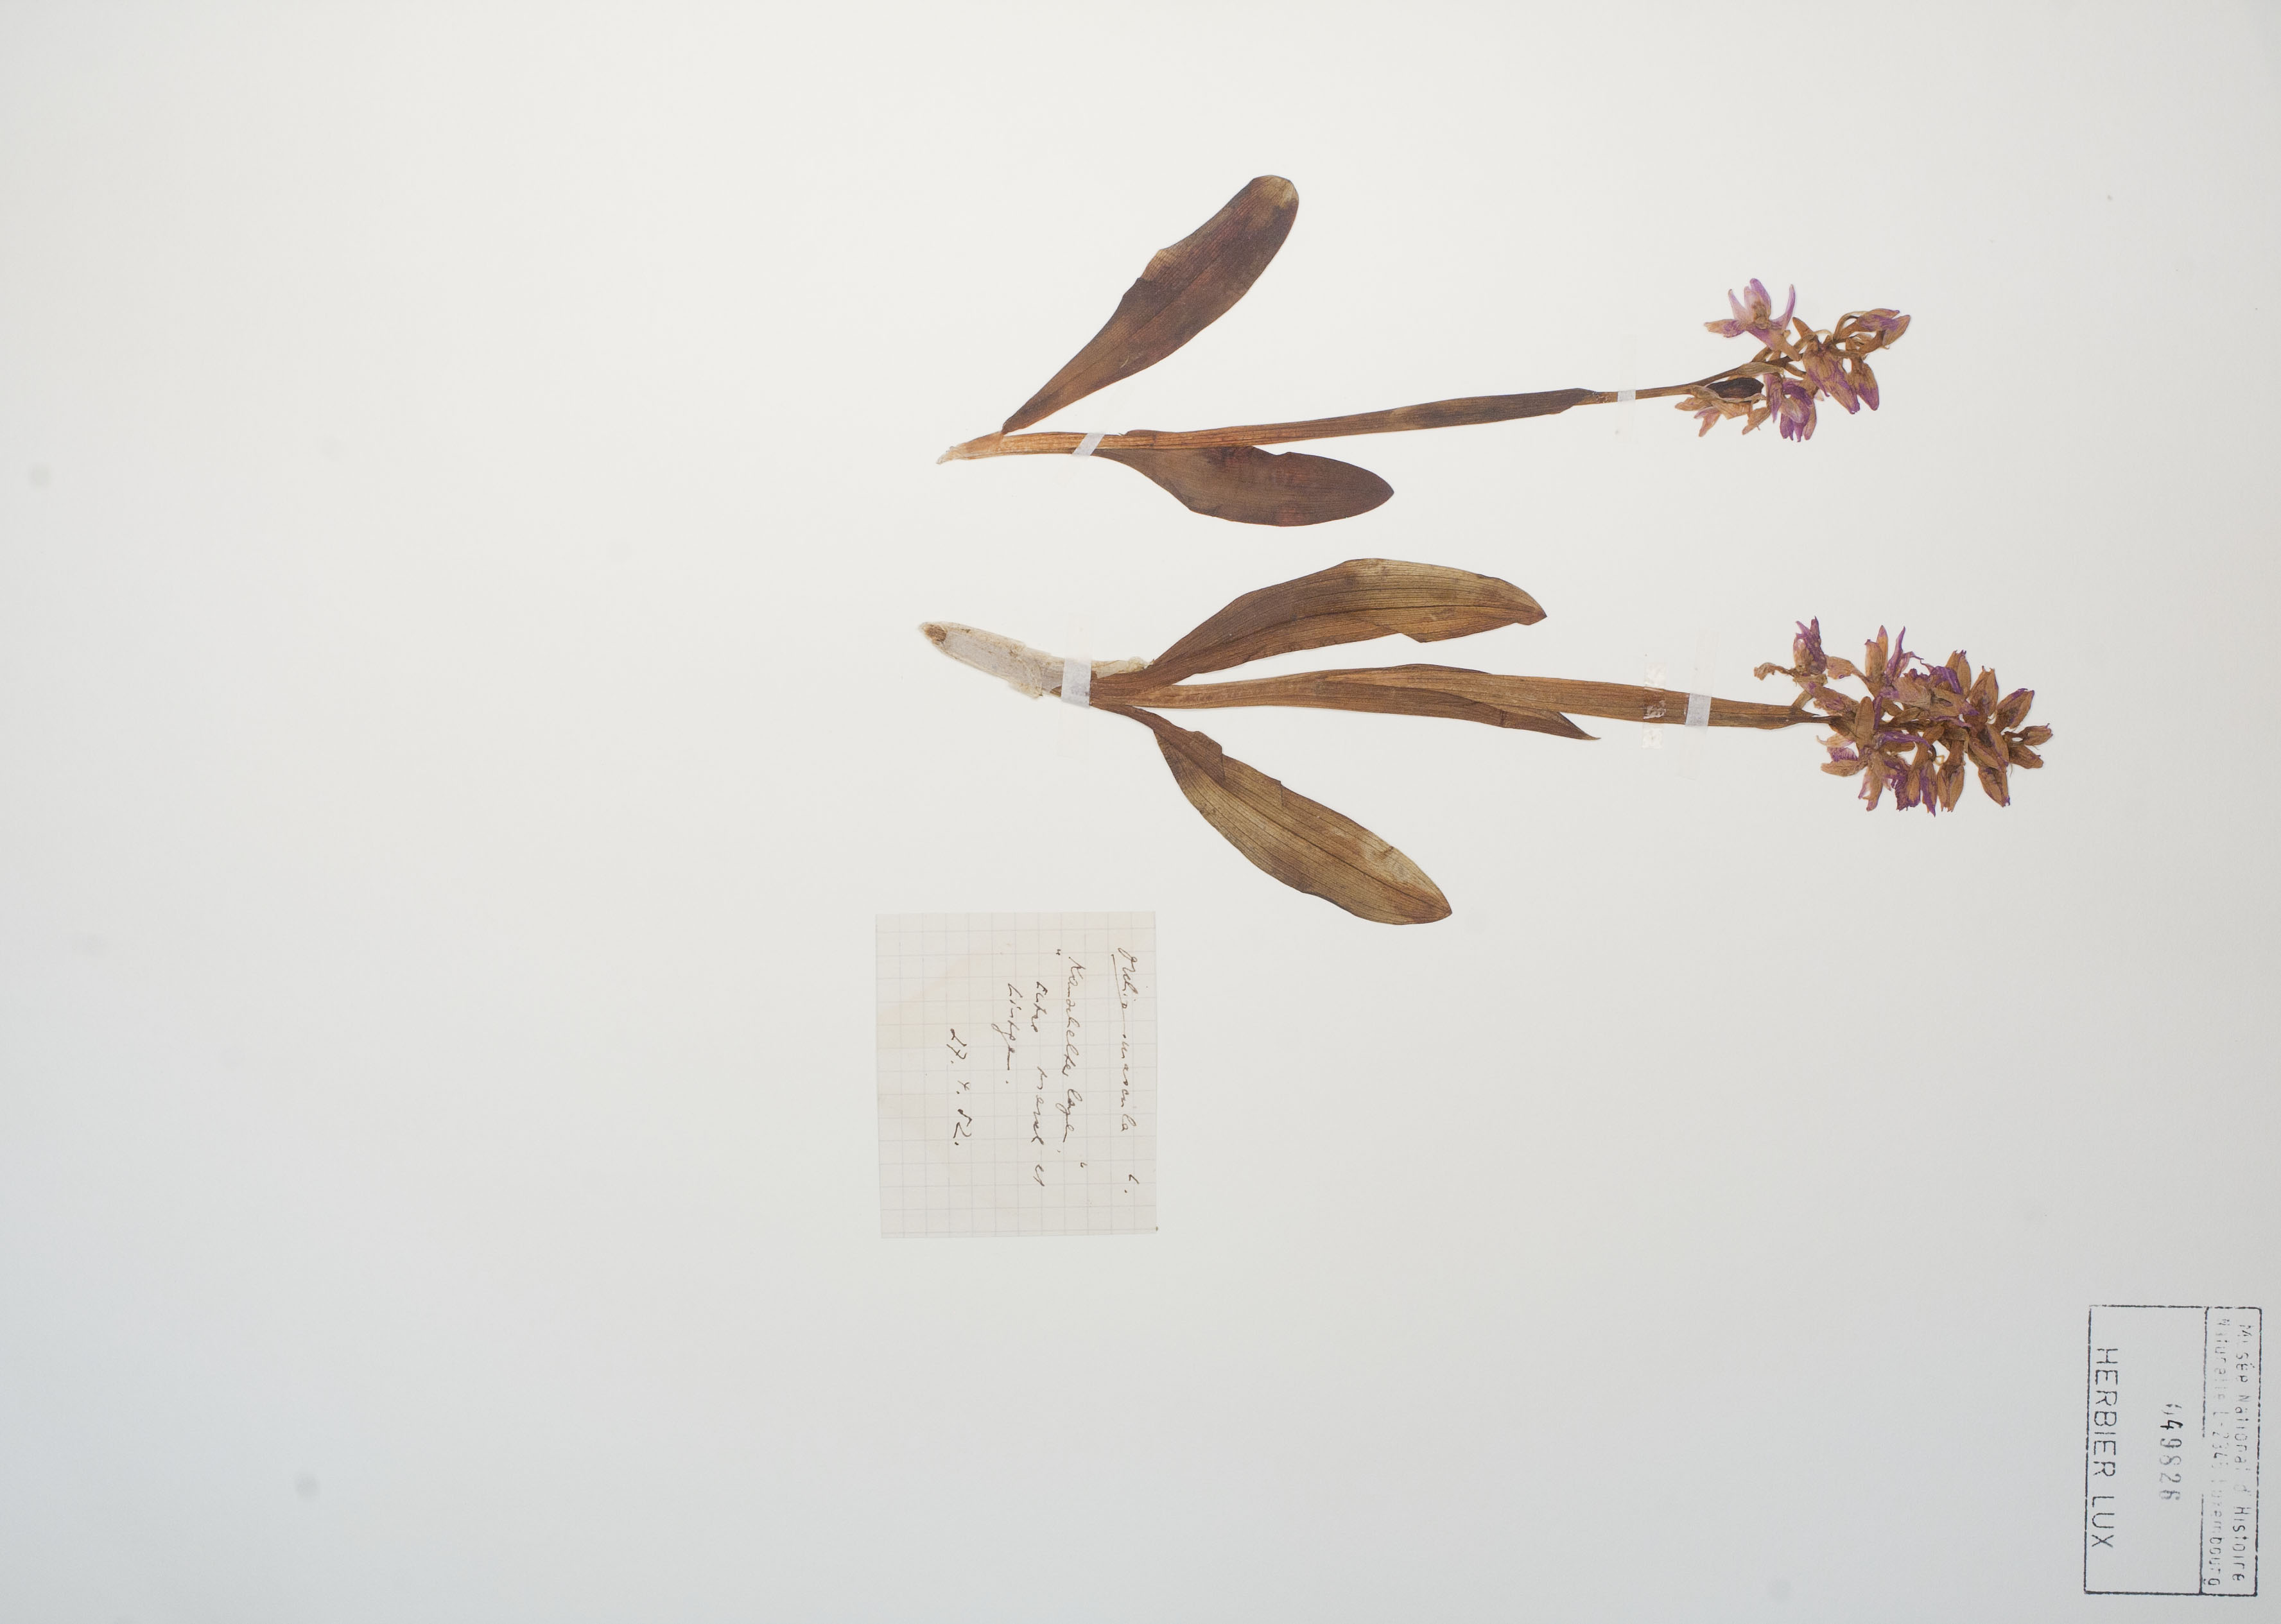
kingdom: Plantae
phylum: Tracheophyta
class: Liliopsida
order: Asparagales
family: Orchidaceae
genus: Orchis
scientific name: Orchis mascula
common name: Early-purple orchid
